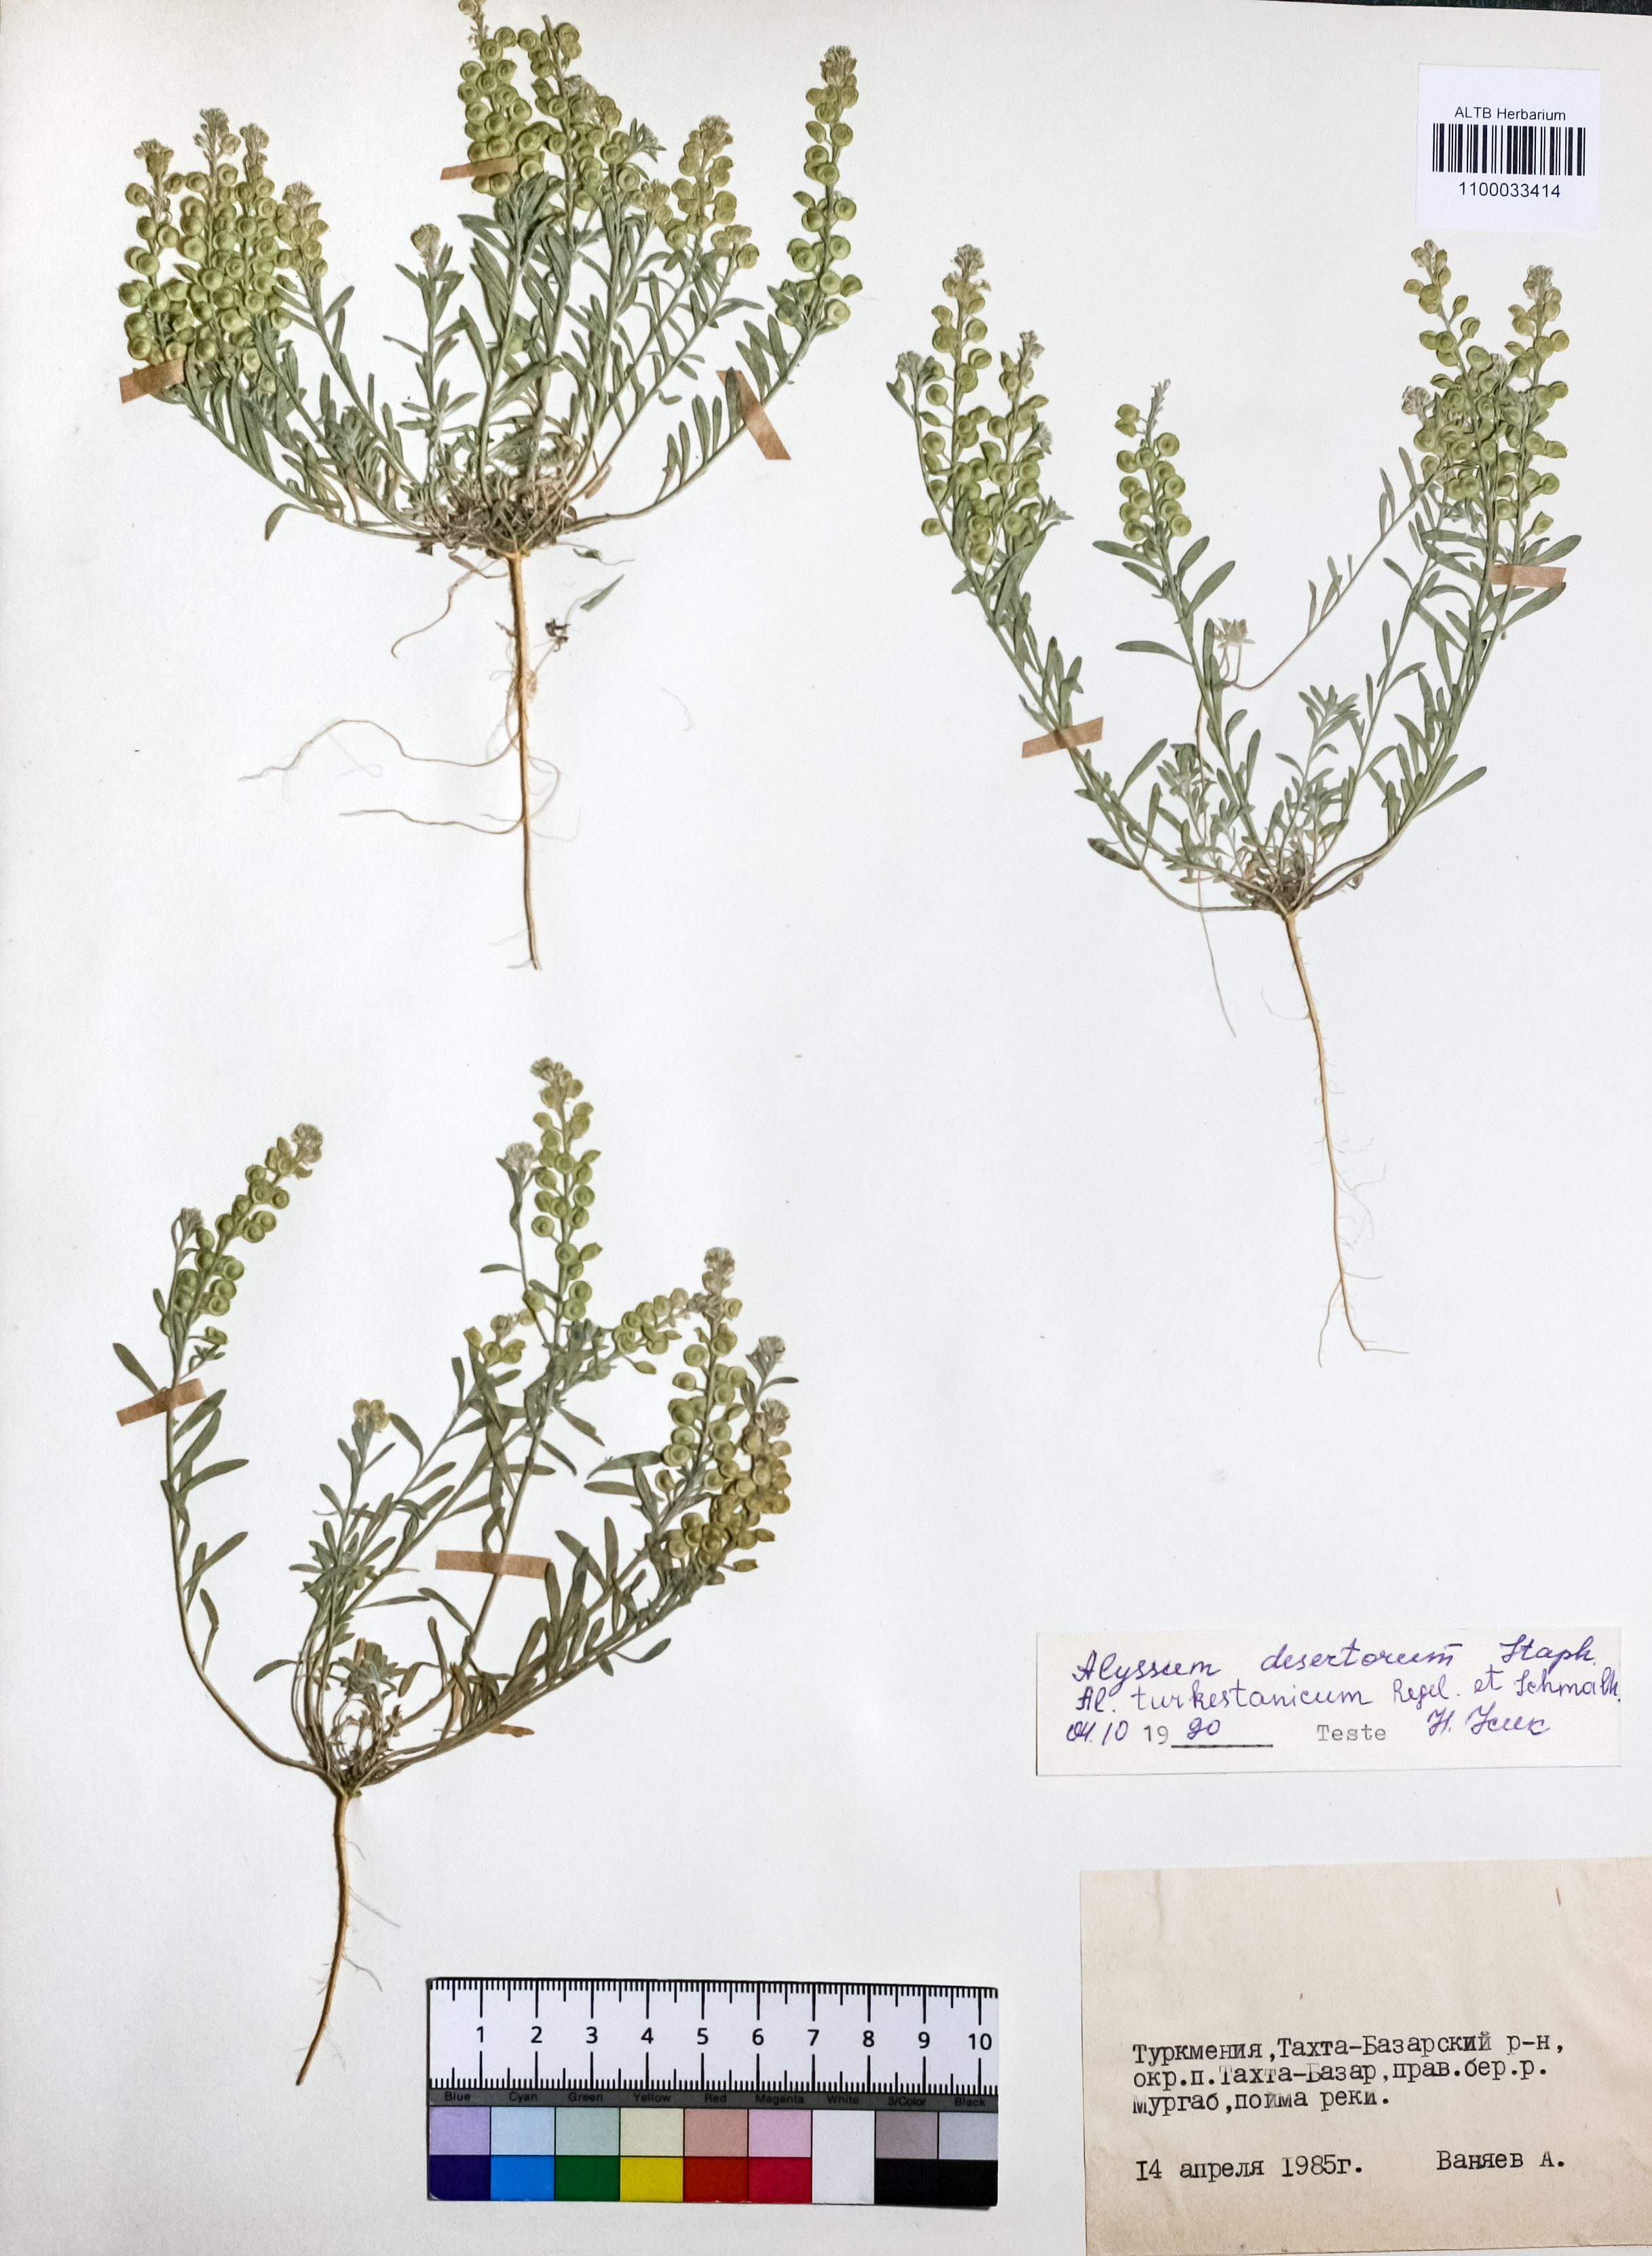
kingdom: Plantae
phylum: Tracheophyta
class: Magnoliopsida
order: Brassicales
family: Brassicaceae
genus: Alyssum
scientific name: Alyssum turkestanicum
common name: Desert alyssum
